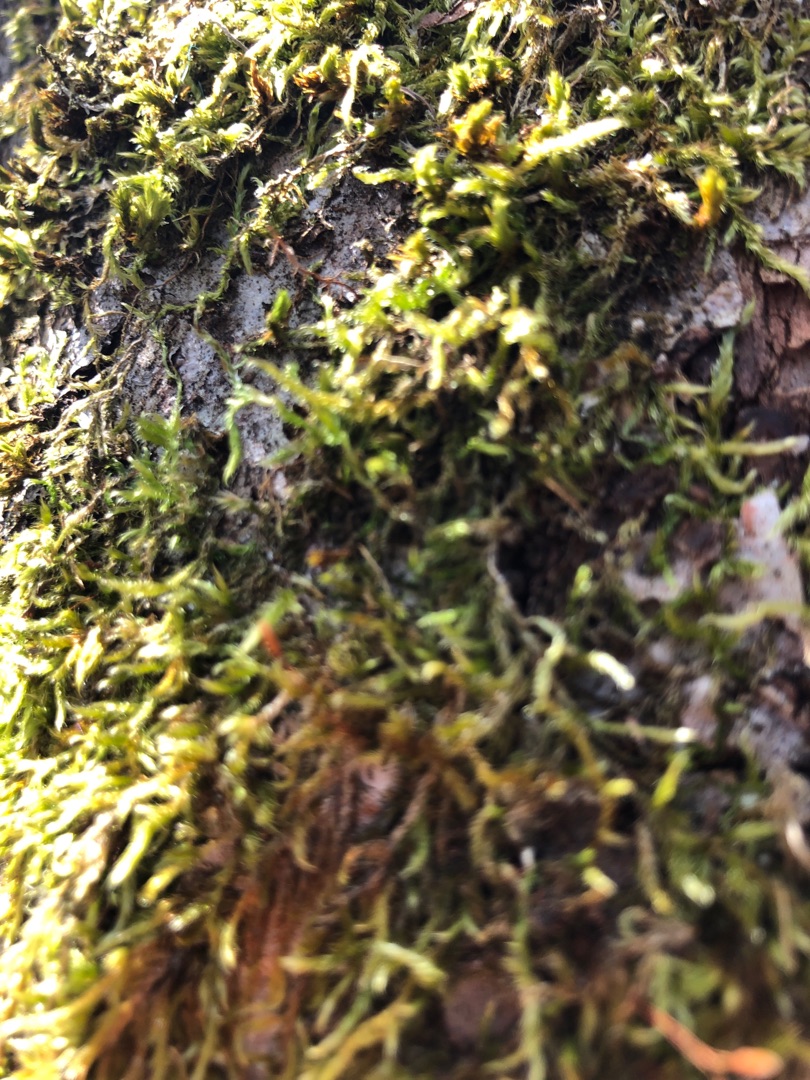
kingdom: Plantae
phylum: Bryophyta
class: Bryopsida
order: Hypnales
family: Hypnaceae
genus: Hypnum
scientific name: Hypnum
